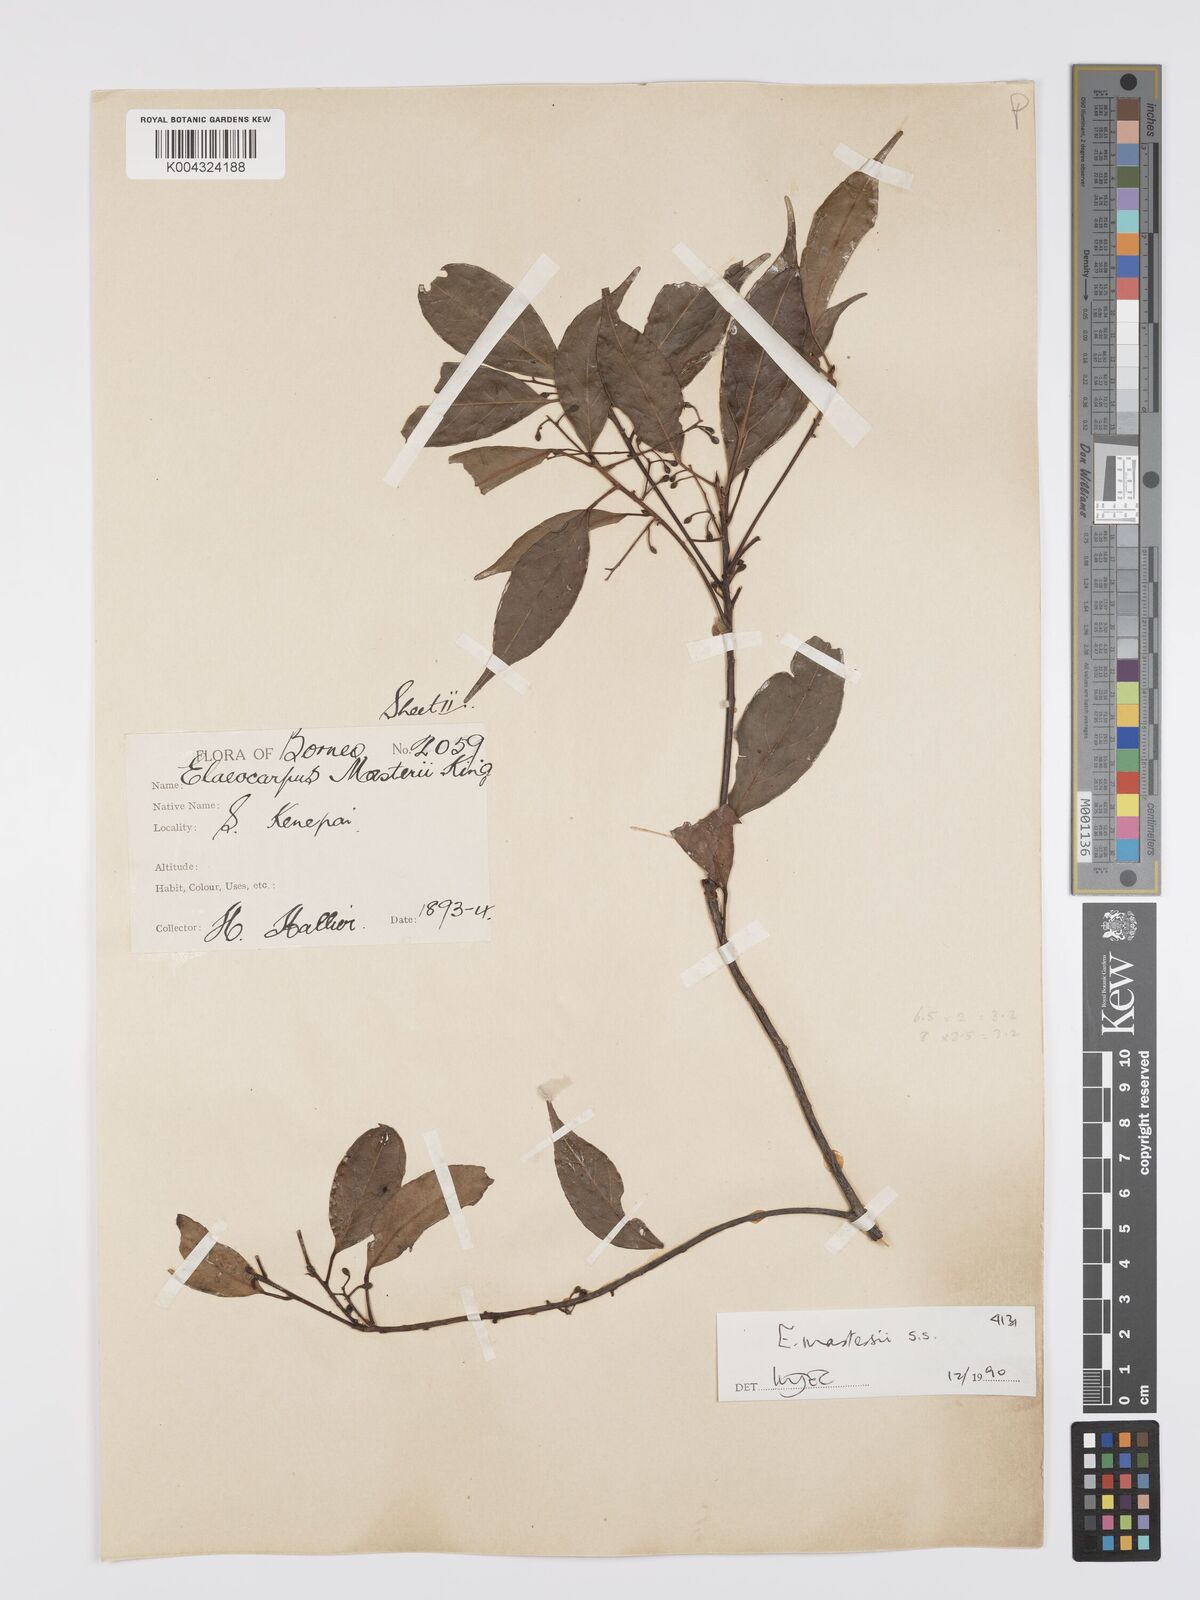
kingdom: Plantae
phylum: Tracheophyta
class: Magnoliopsida
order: Oxalidales
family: Elaeocarpaceae
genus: Elaeocarpus
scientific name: Elaeocarpus mastersii
